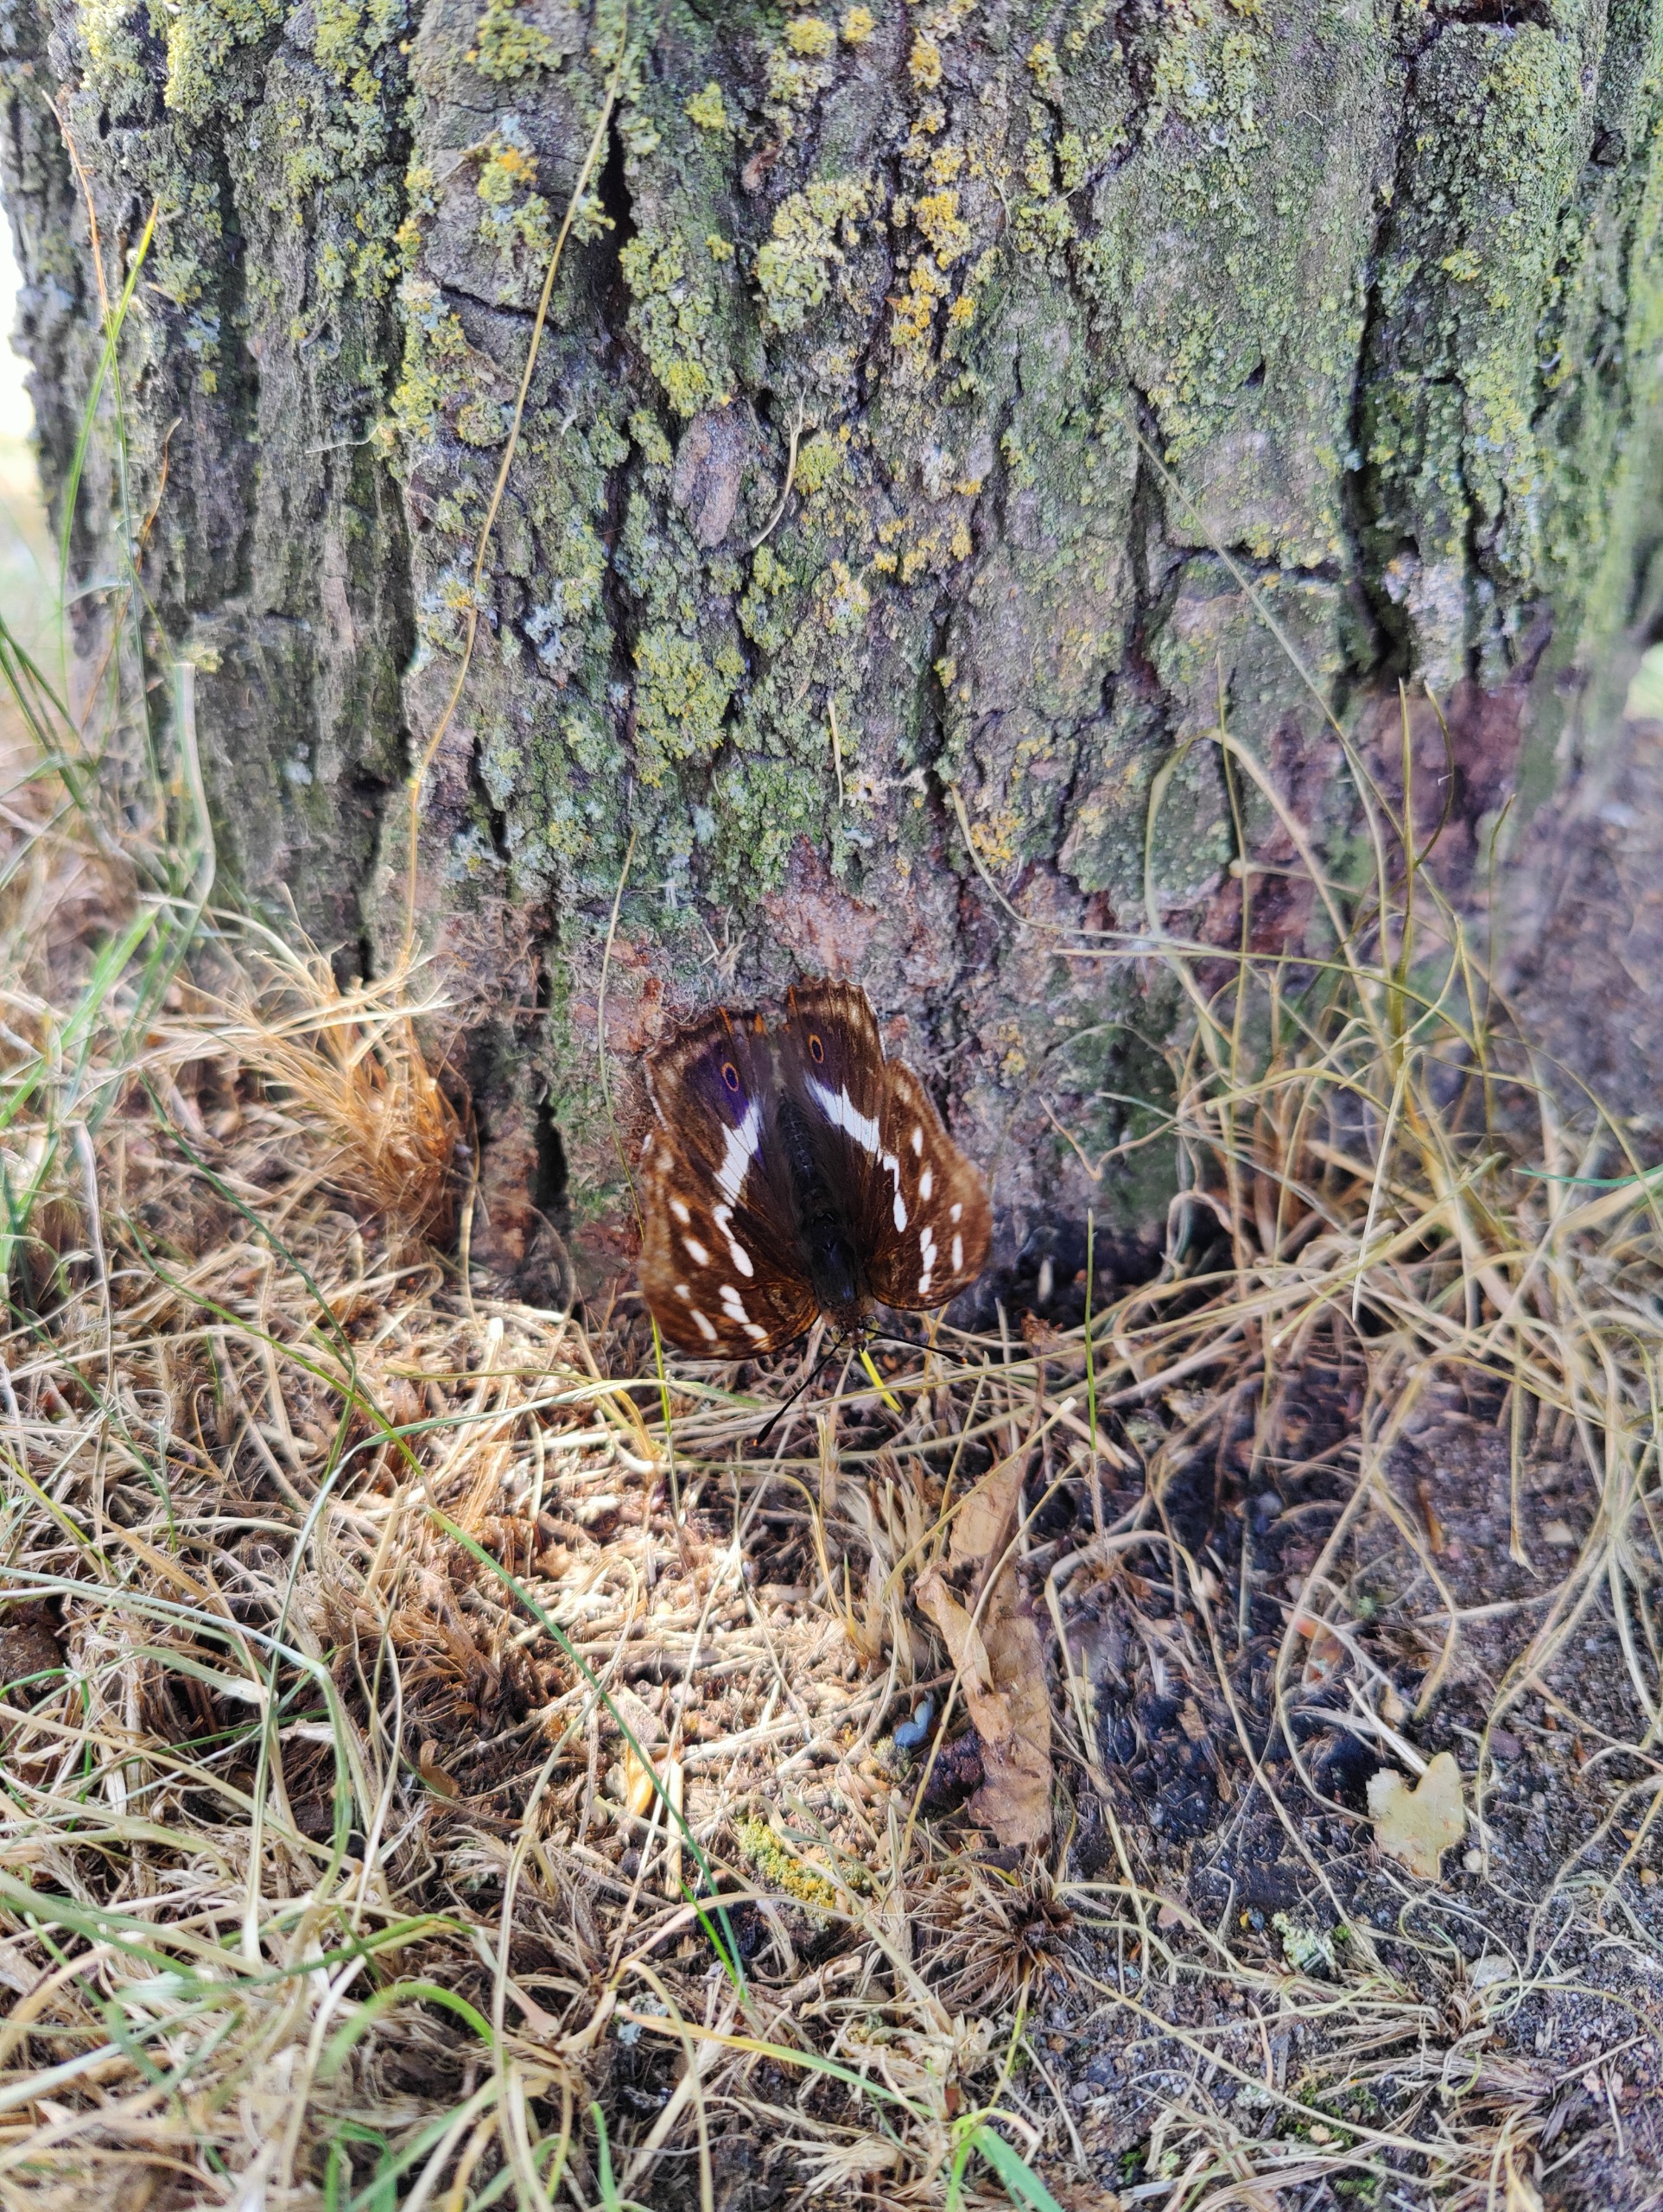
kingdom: Animalia
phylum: Arthropoda
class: Insecta
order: Lepidoptera
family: Nymphalidae
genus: Apatura
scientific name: Apatura iris
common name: Iris
